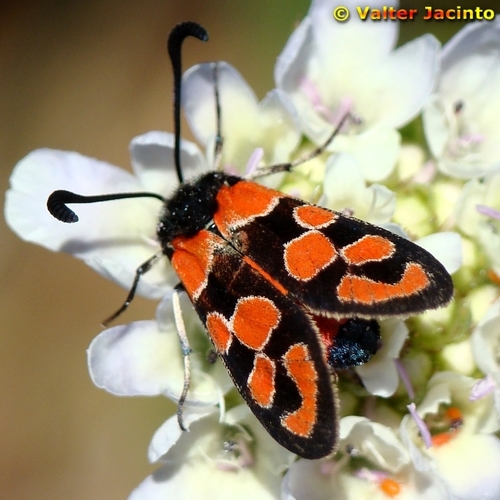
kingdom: Animalia
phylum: Arthropoda
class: Insecta
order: Lepidoptera
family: Zygaenidae
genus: Zygaena
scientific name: Zygaena fausta
